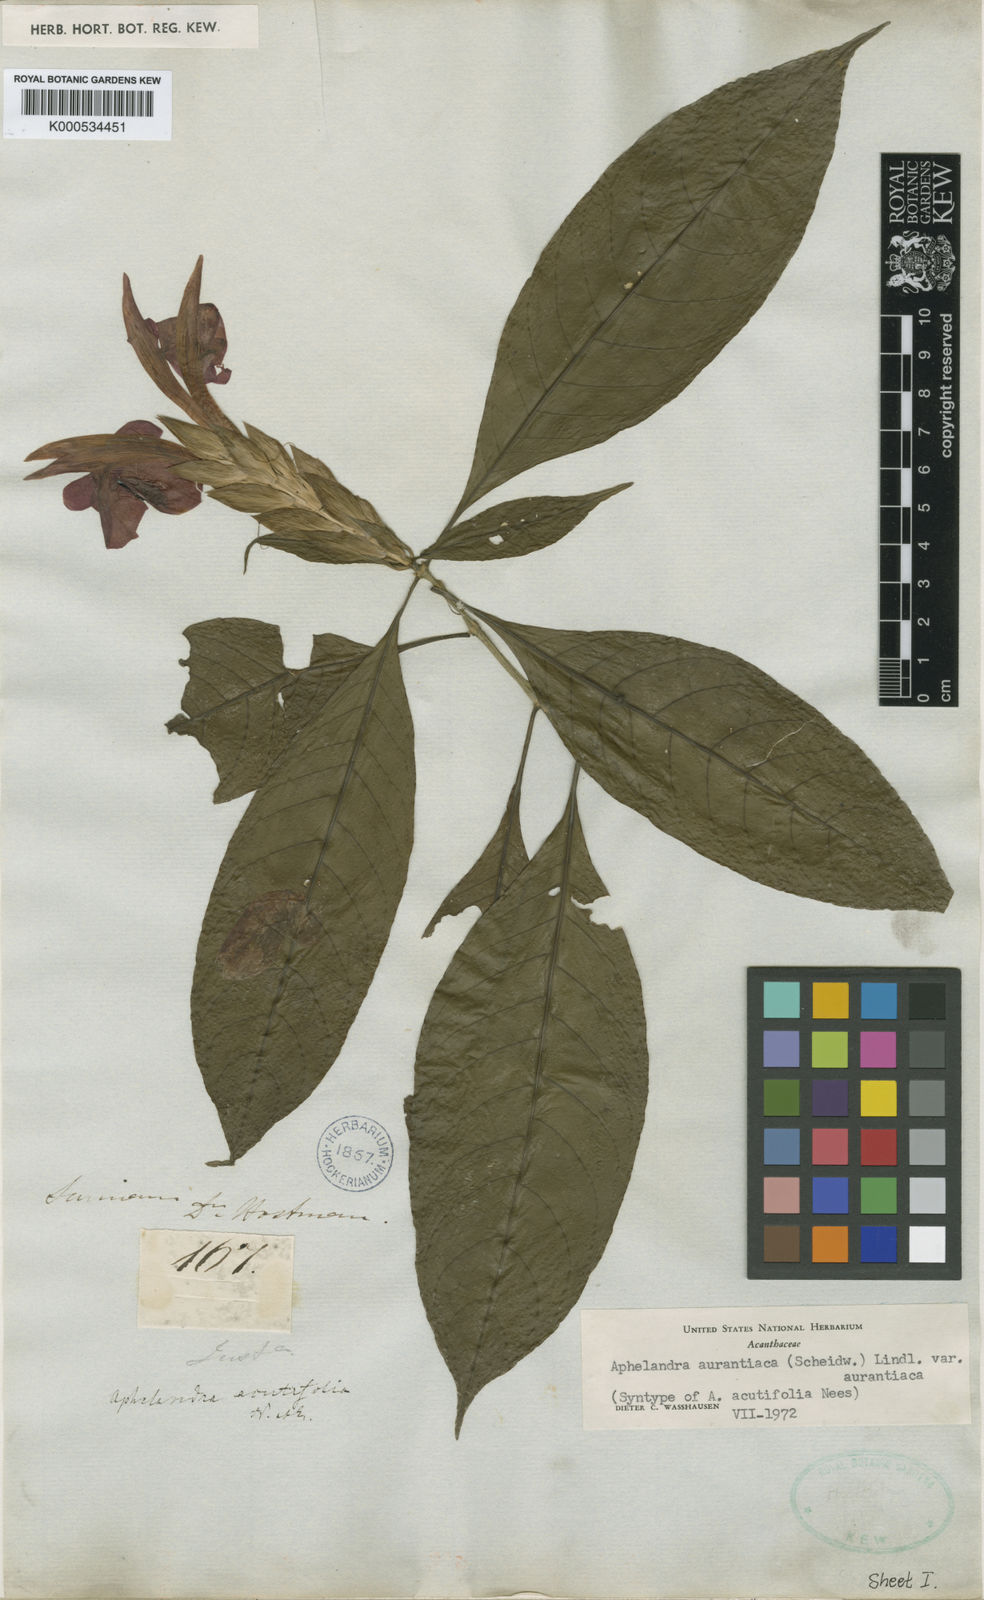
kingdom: Plantae
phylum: Tracheophyta
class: Magnoliopsida
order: Lamiales
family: Acanthaceae
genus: Aphelandra
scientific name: Aphelandra aurantiaca
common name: Fiery spike
